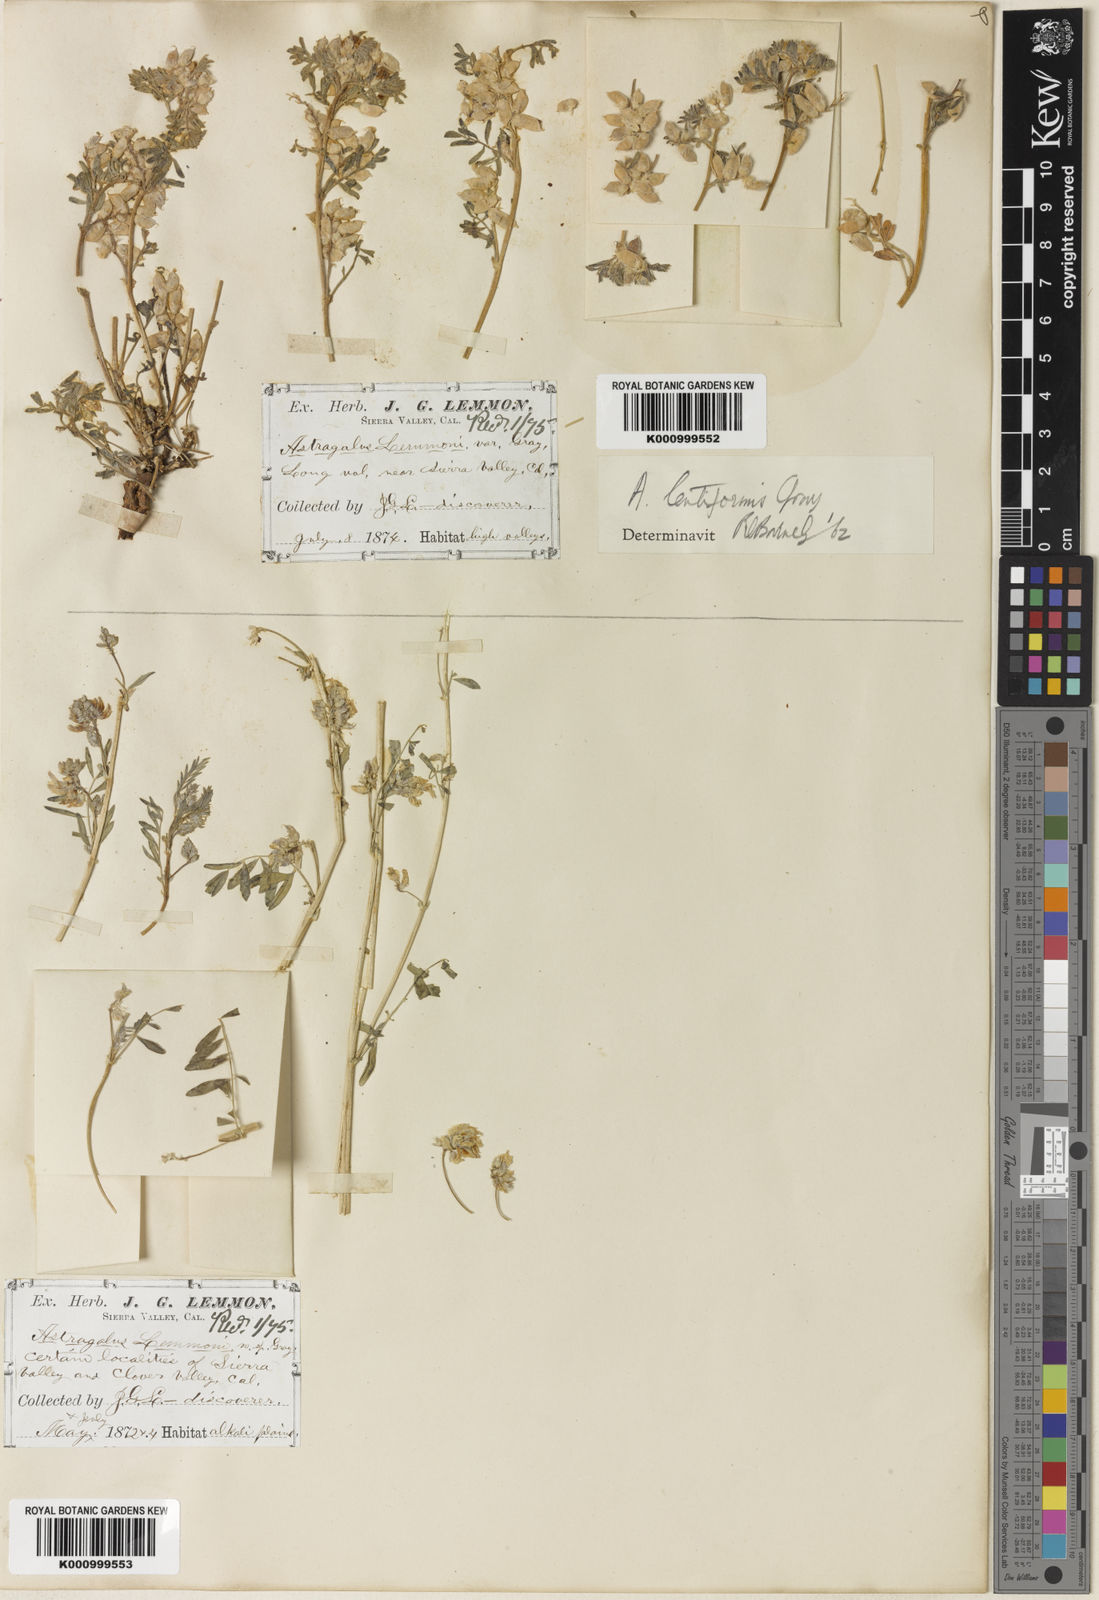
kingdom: Plantae
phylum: Tracheophyta
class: Magnoliopsida
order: Fabales
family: Fabaceae
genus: Astragalus
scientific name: Astragalus lemmonii
